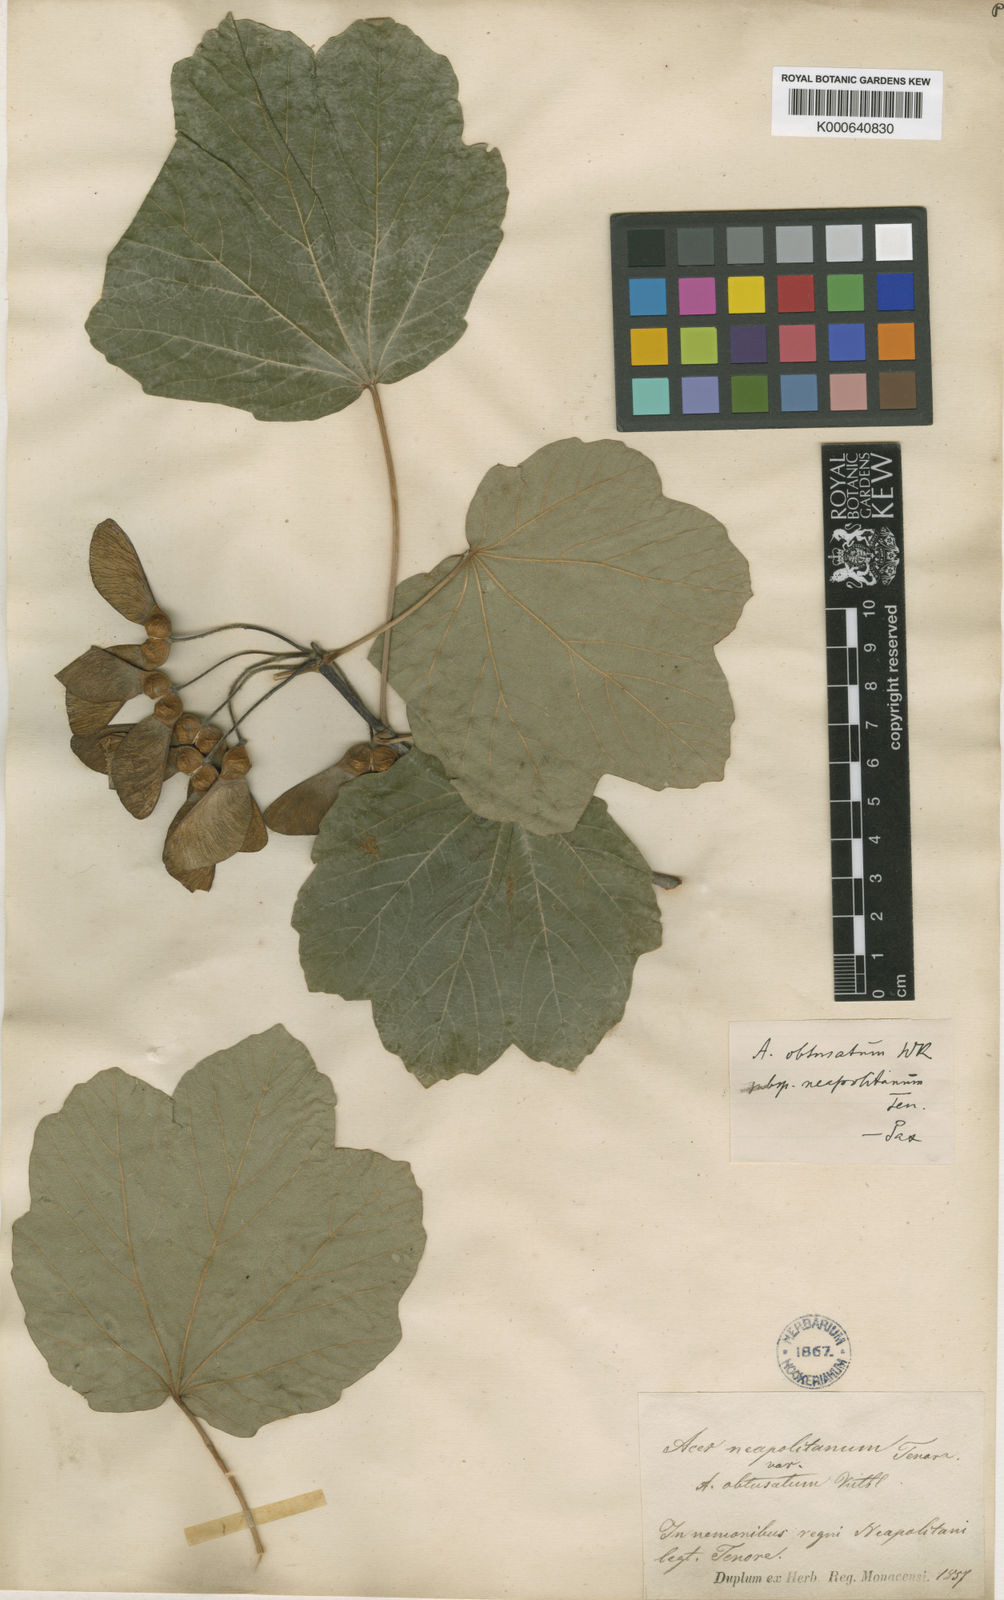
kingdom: Plantae
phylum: Tracheophyta
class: Magnoliopsida
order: Sapindales
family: Sapindaceae
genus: Acer
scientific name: Acer opalus
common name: Italian maple
